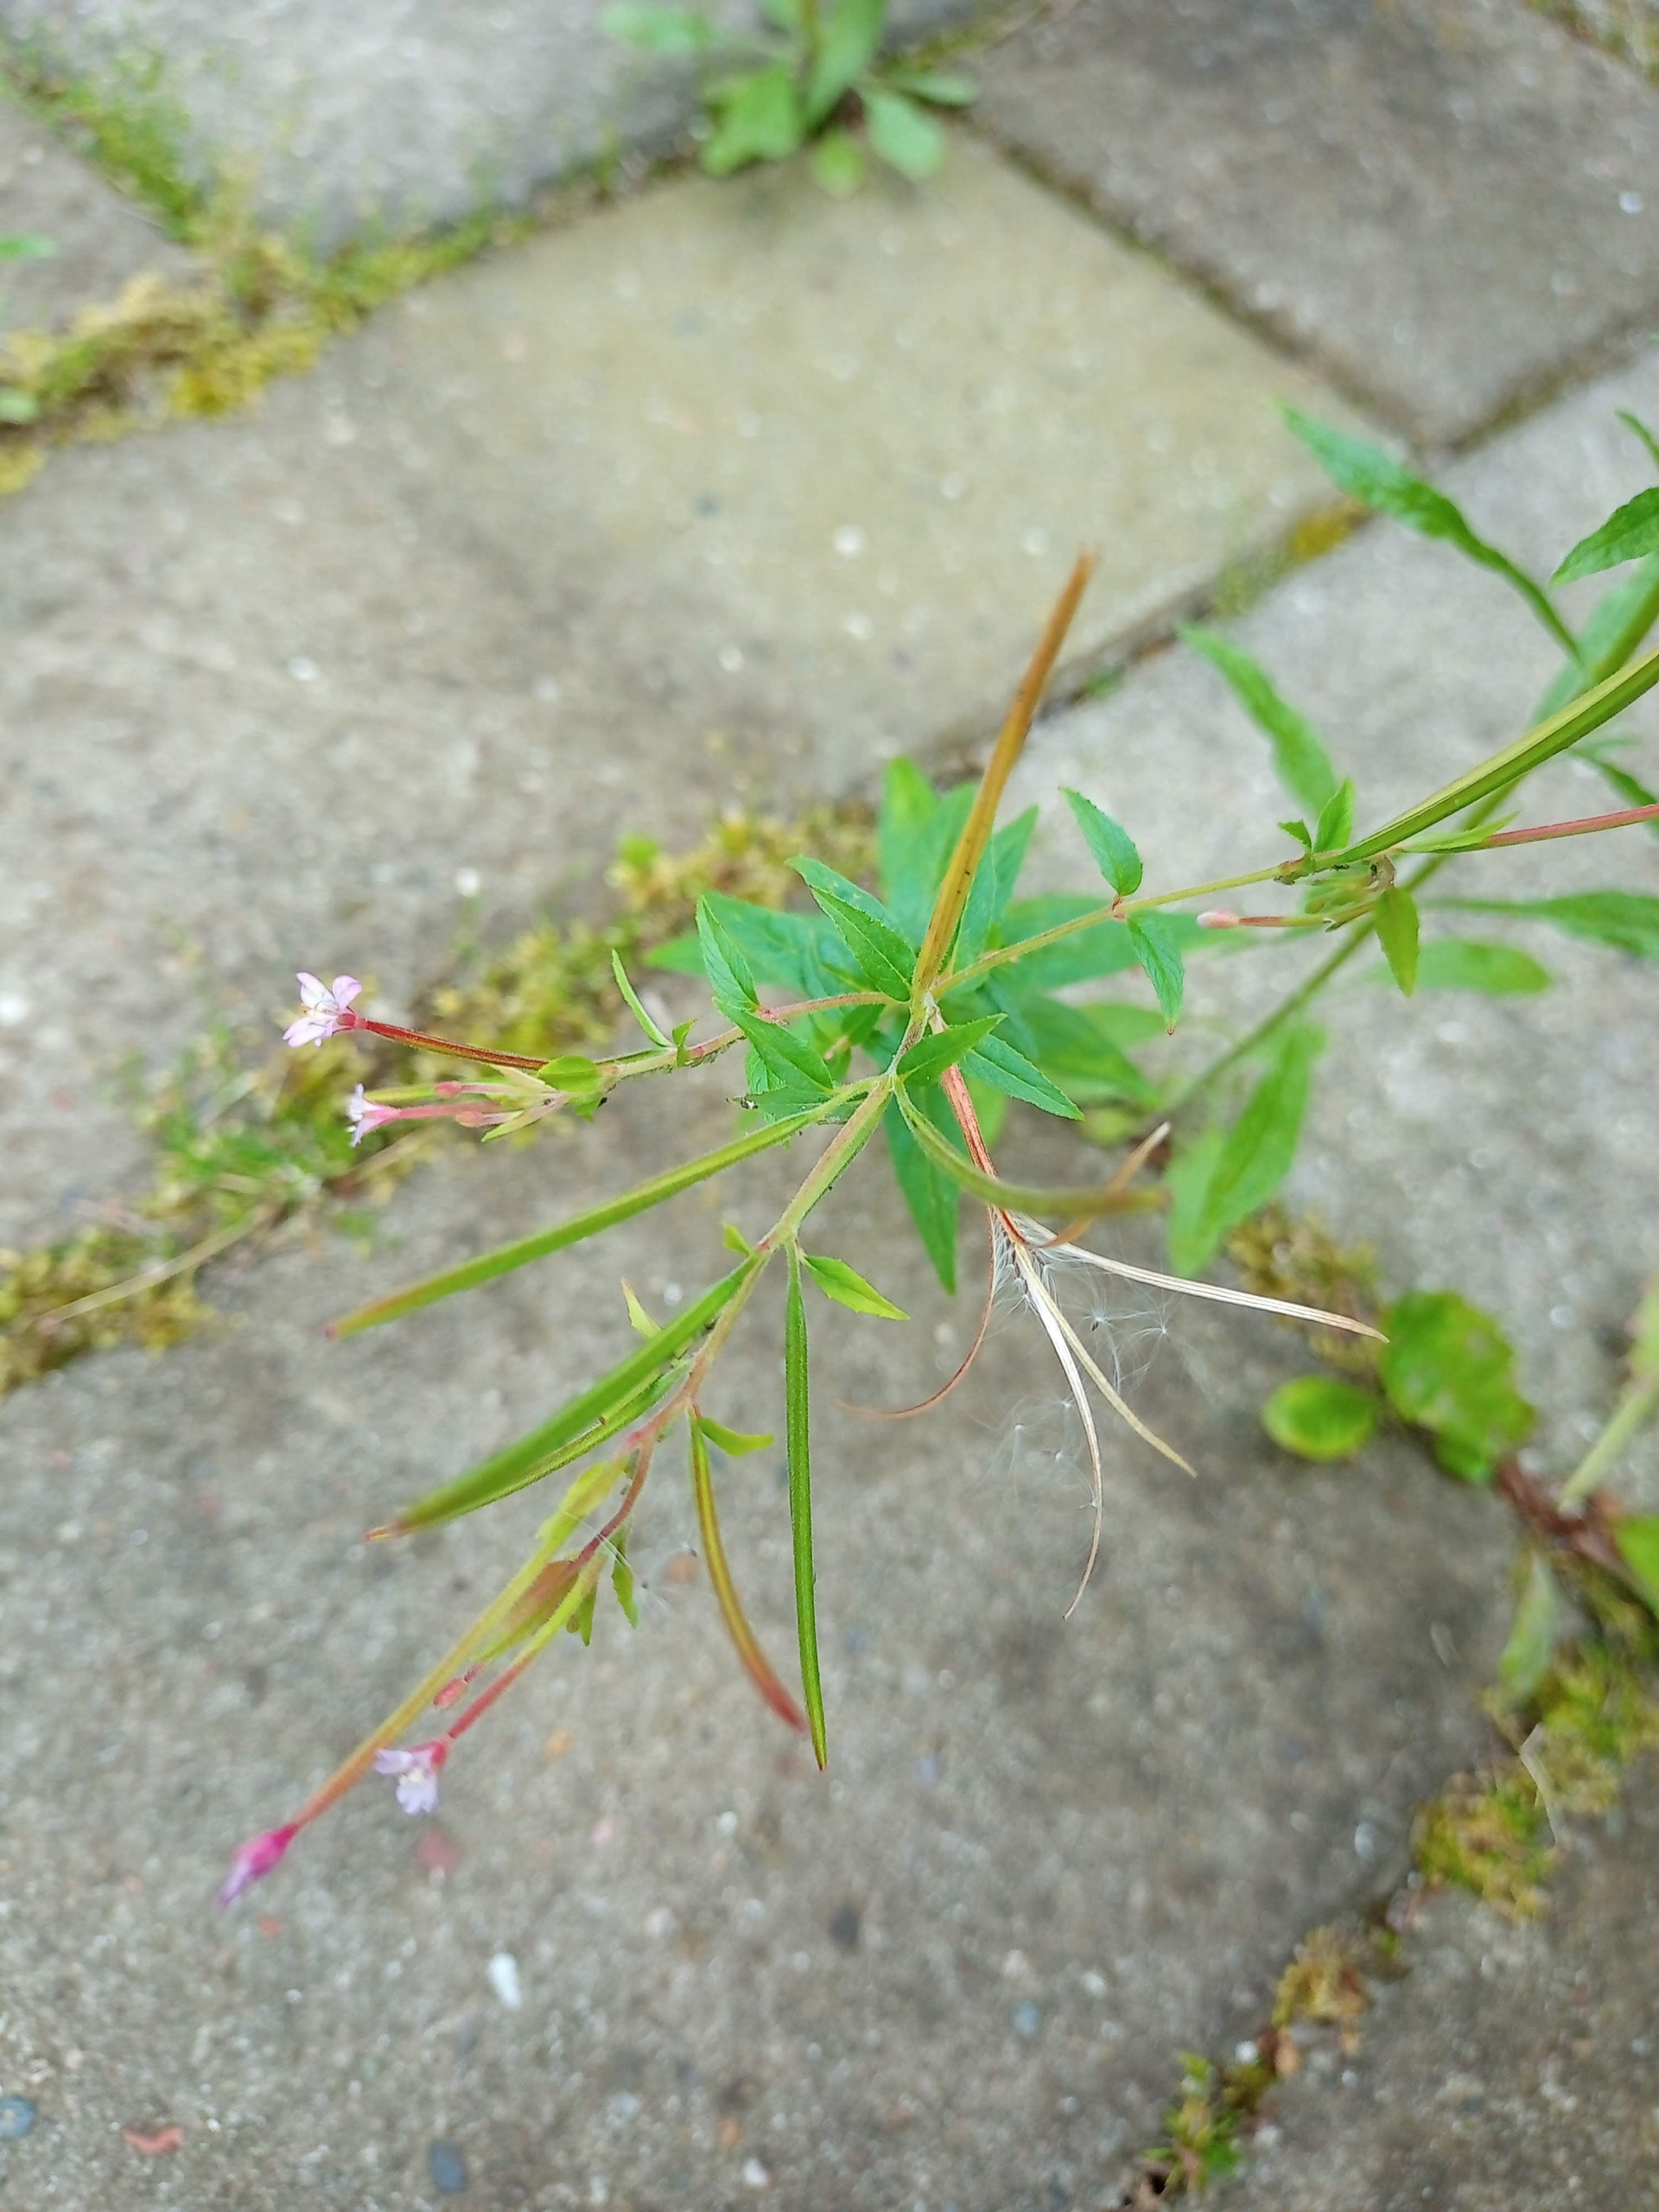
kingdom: Plantae
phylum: Tracheophyta
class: Magnoliopsida
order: Myrtales
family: Onagraceae
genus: Epilobium
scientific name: Epilobium ciliatum
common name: Kirtlet dueurt
